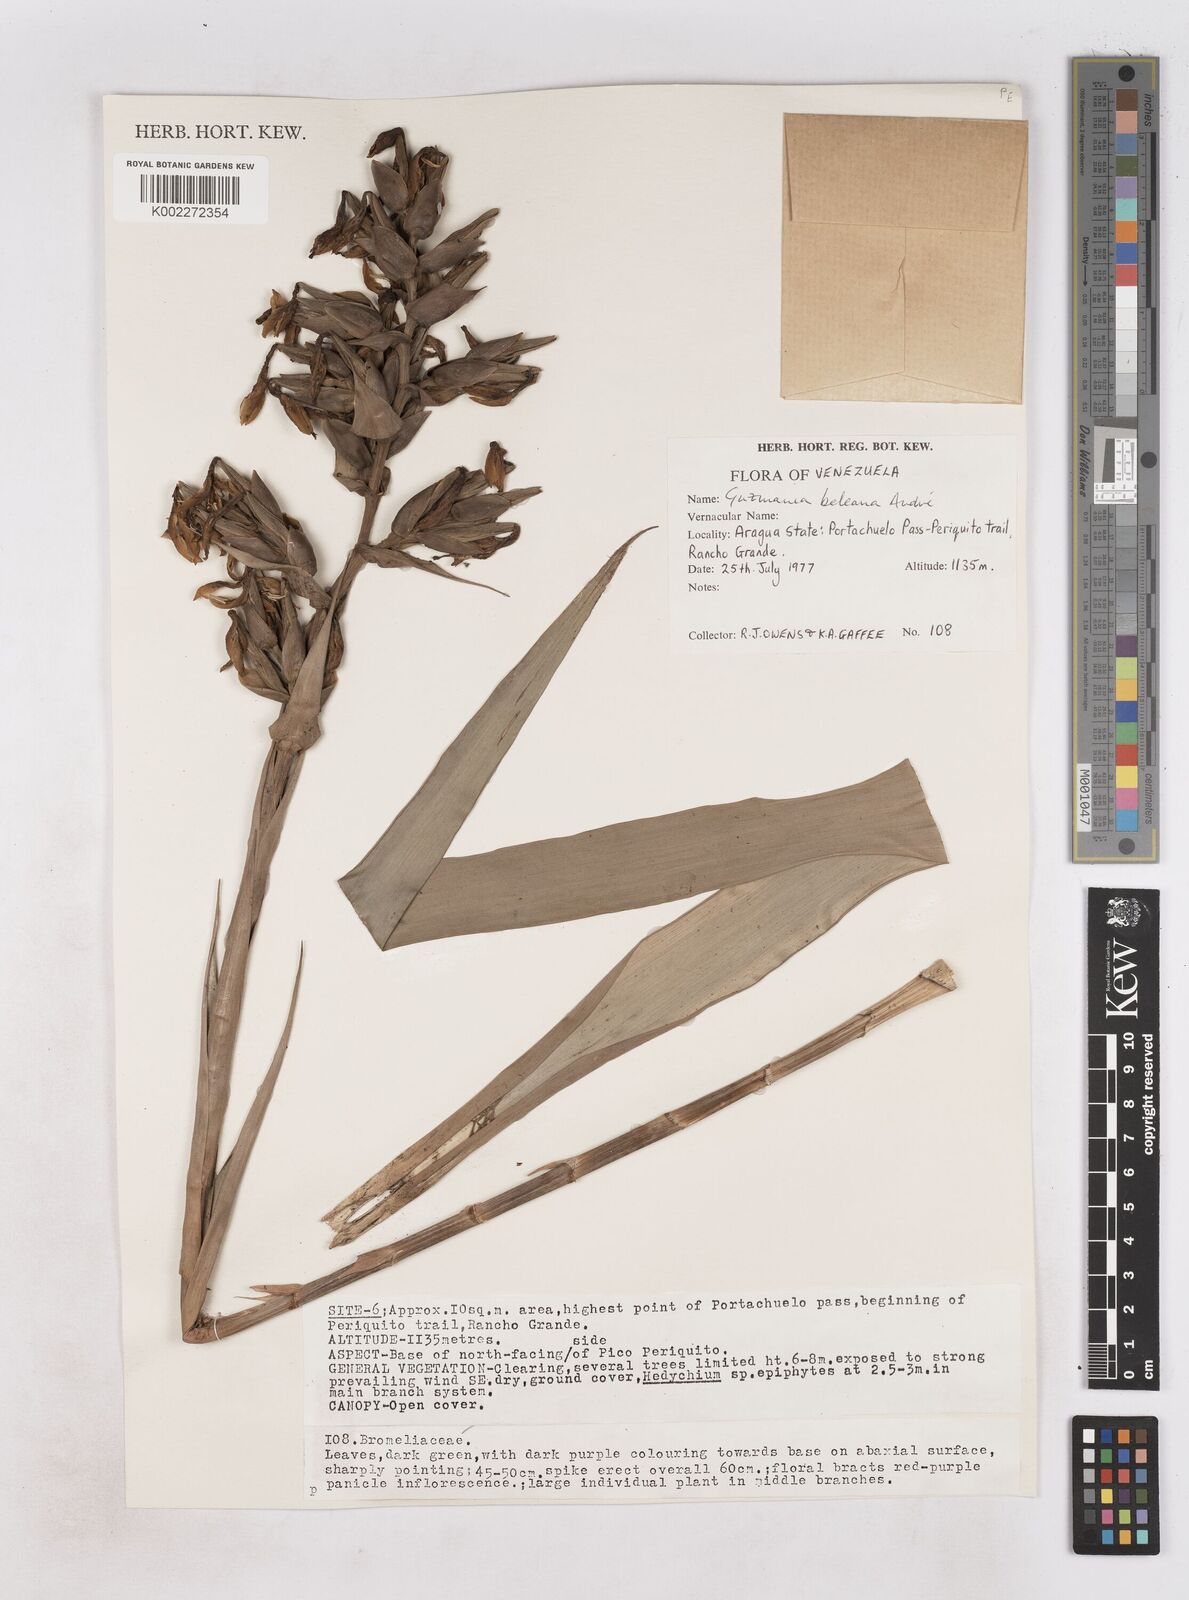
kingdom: Plantae
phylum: Tracheophyta
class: Liliopsida
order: Poales
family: Bromeliaceae
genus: Guzmania
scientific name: Guzmania virescens
